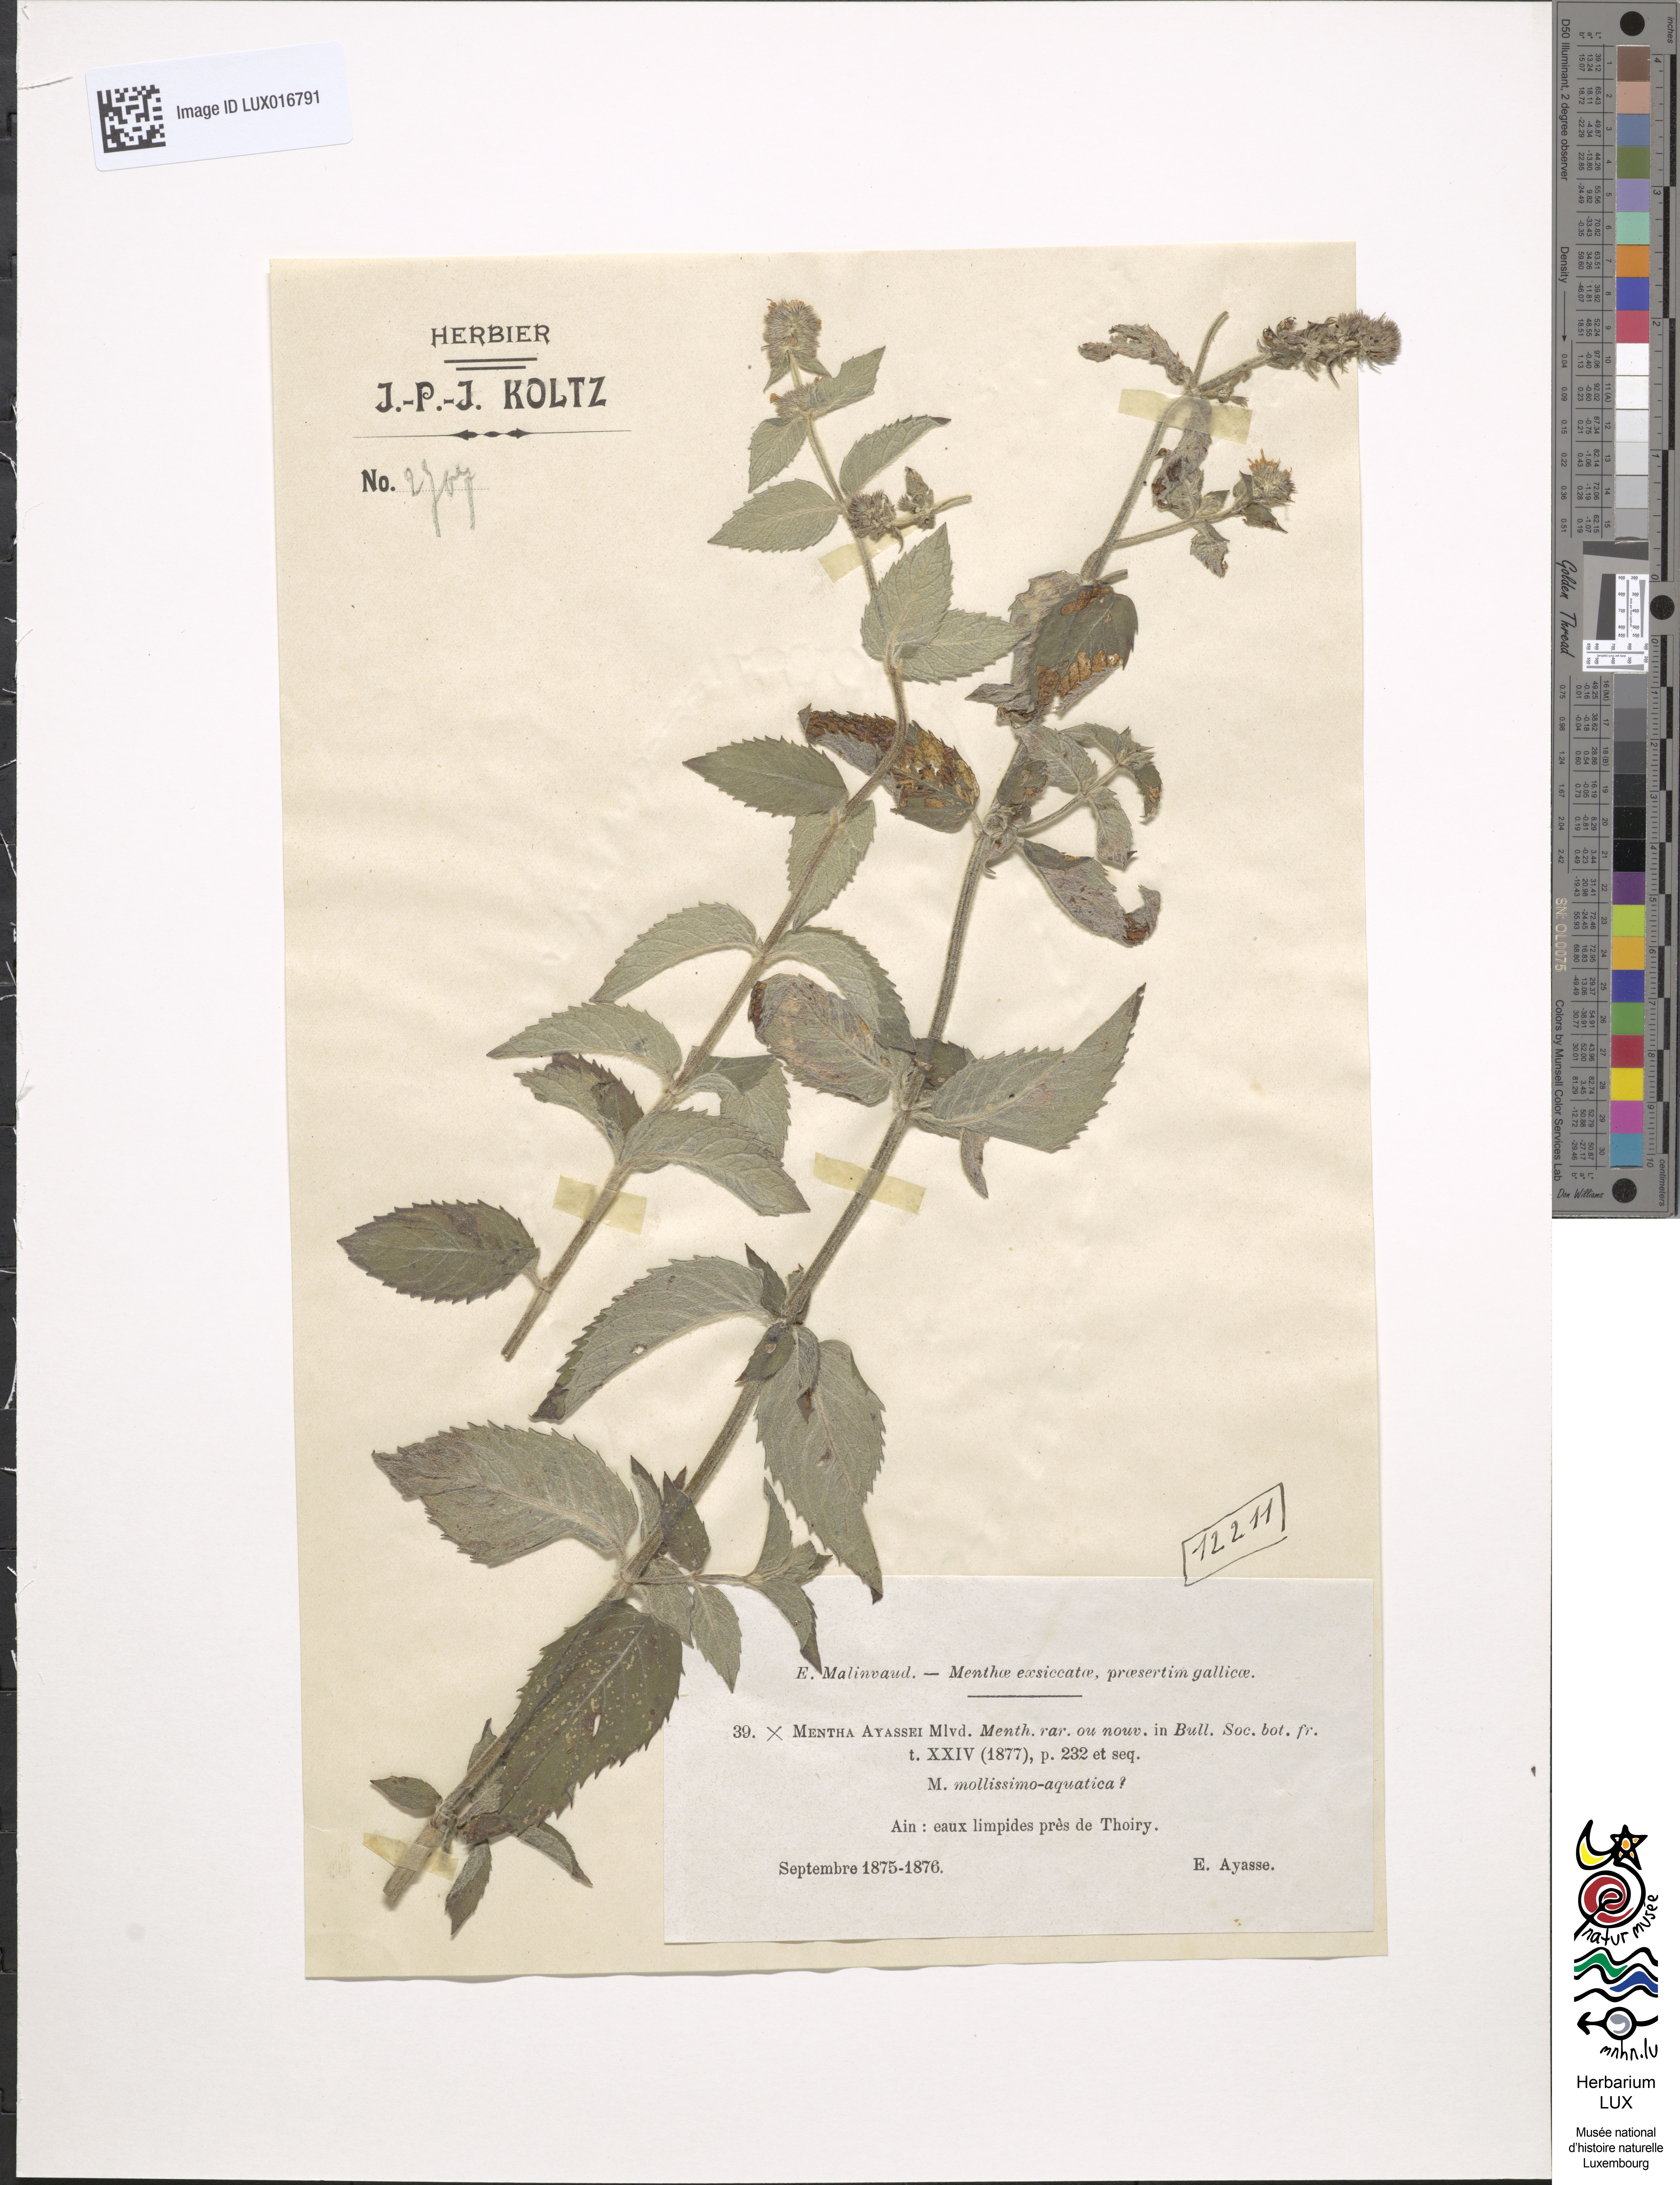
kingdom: Plantae
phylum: Tracheophyta
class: Magnoliopsida
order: Lamiales
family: Lamiaceae
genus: Mentha
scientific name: Mentha dumetorum
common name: Bush-loving mint
